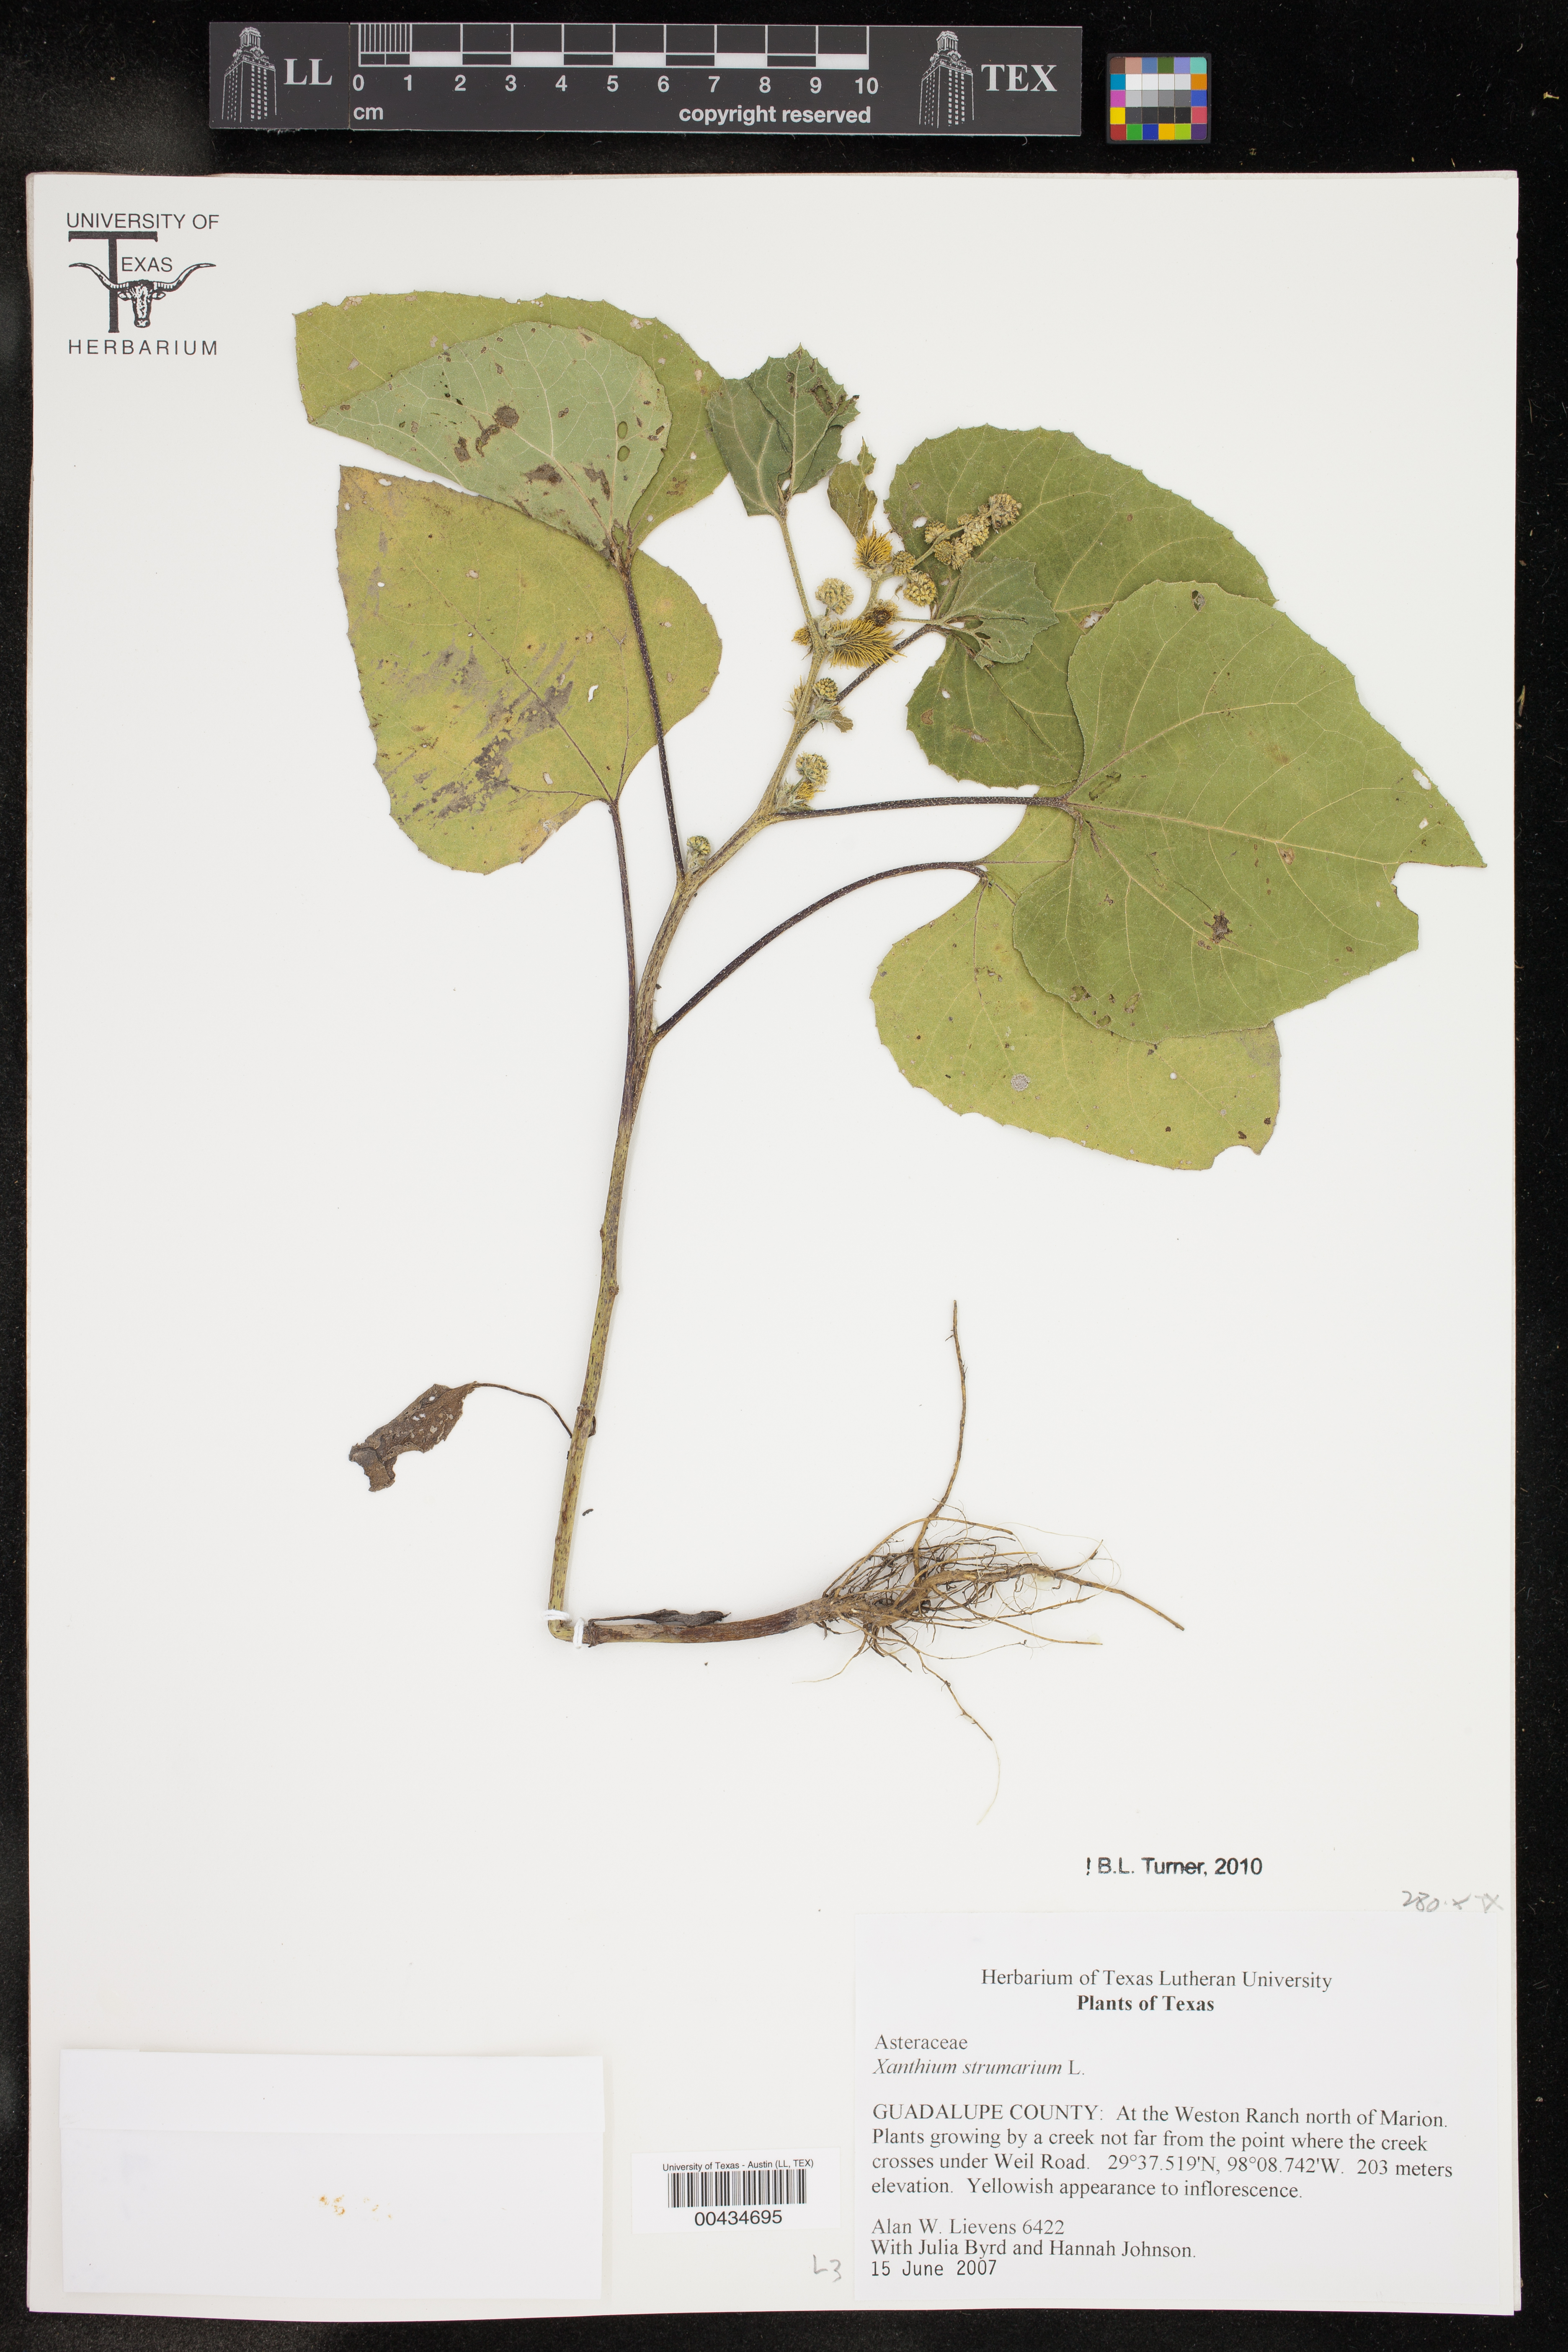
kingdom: Plantae
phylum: Tracheophyta
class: Magnoliopsida
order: Asterales
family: Asteraceae
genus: Xanthium
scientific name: Xanthium strumarium
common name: Rough cocklebur
